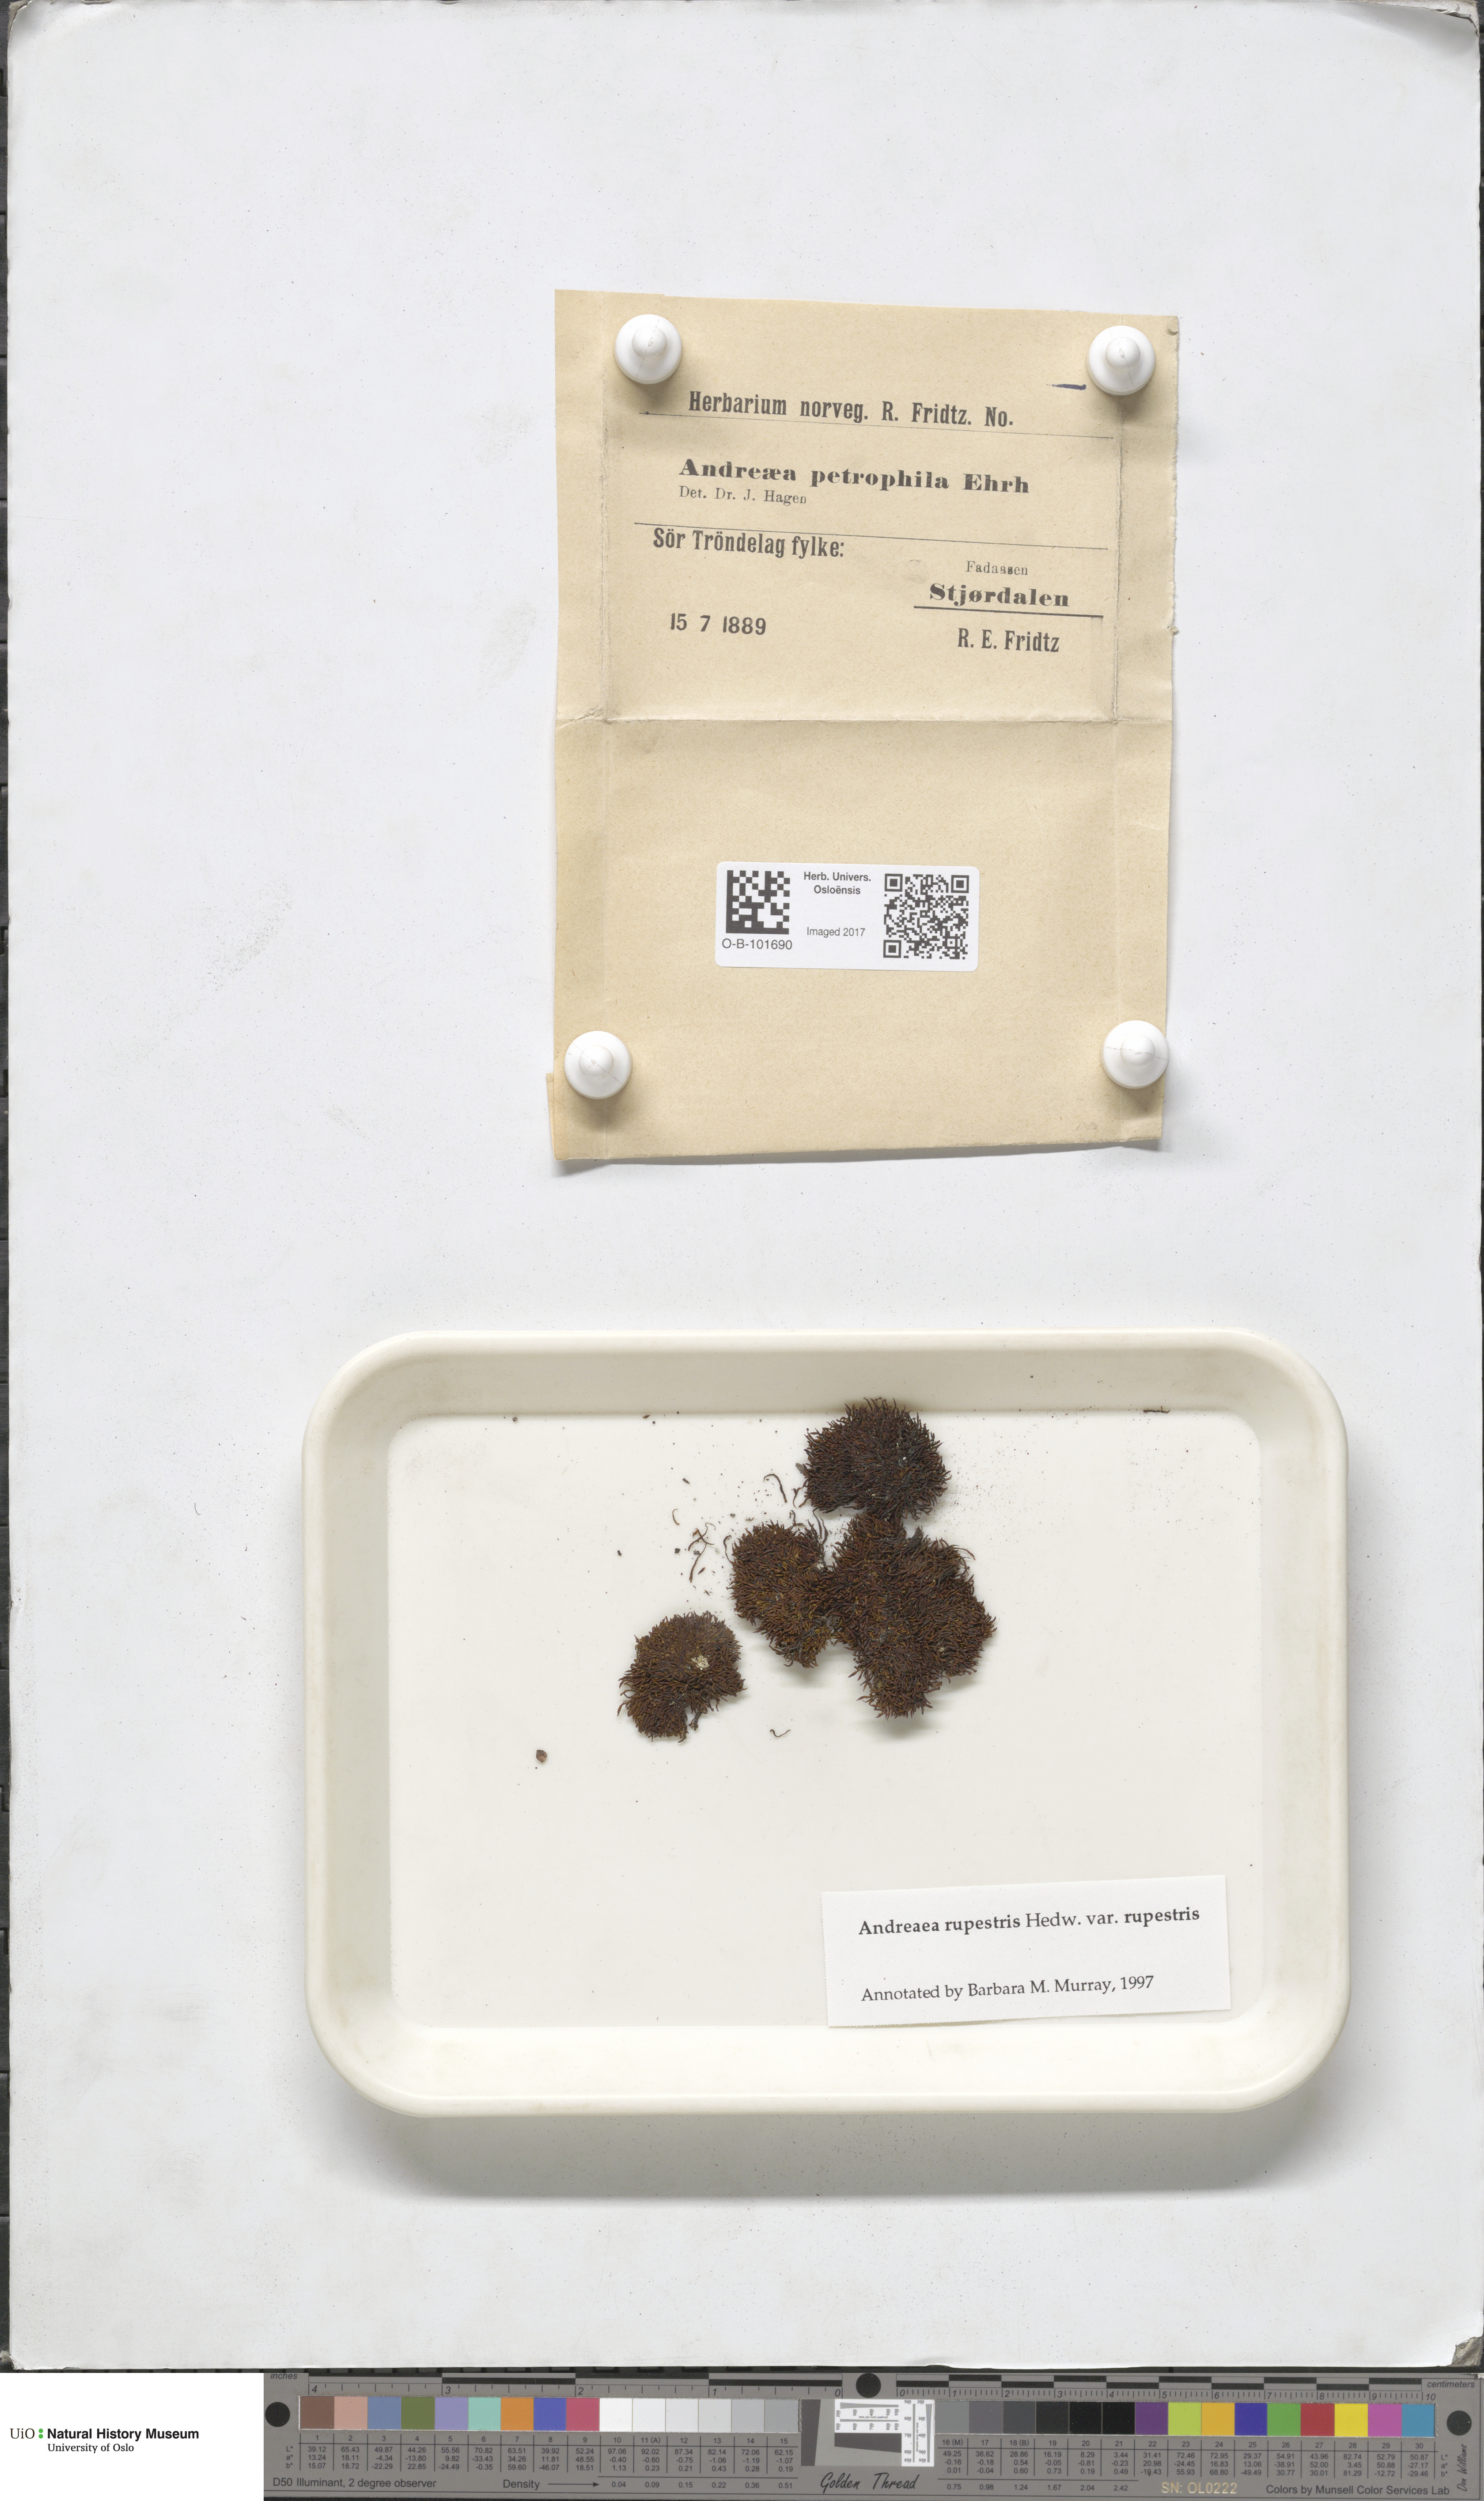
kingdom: Plantae
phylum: Bryophyta
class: Andreaeopsida
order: Andreaeales
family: Andreaeaceae
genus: Andreaea
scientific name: Andreaea rupestris
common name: Black rock moss
